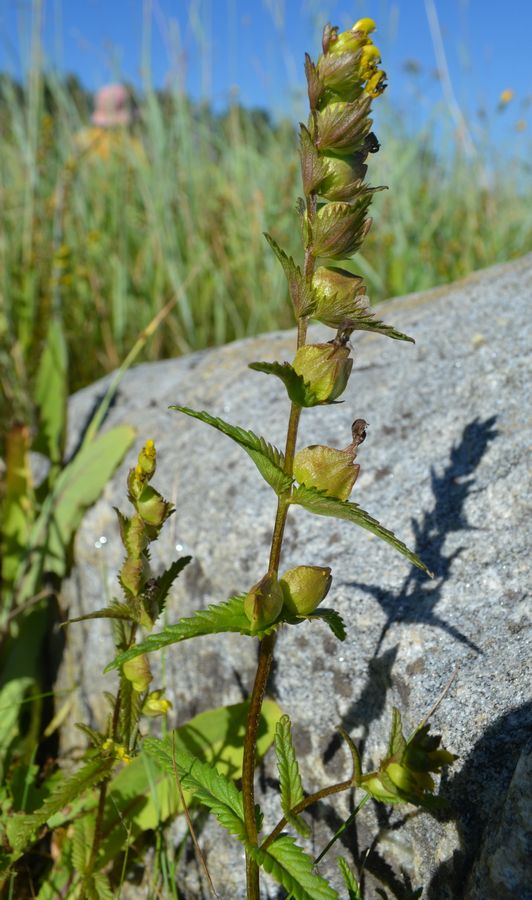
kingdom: Plantae
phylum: Tracheophyta
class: Magnoliopsida
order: Lamiales
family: Orobanchaceae
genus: Rhinanthus
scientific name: Rhinanthus minor
